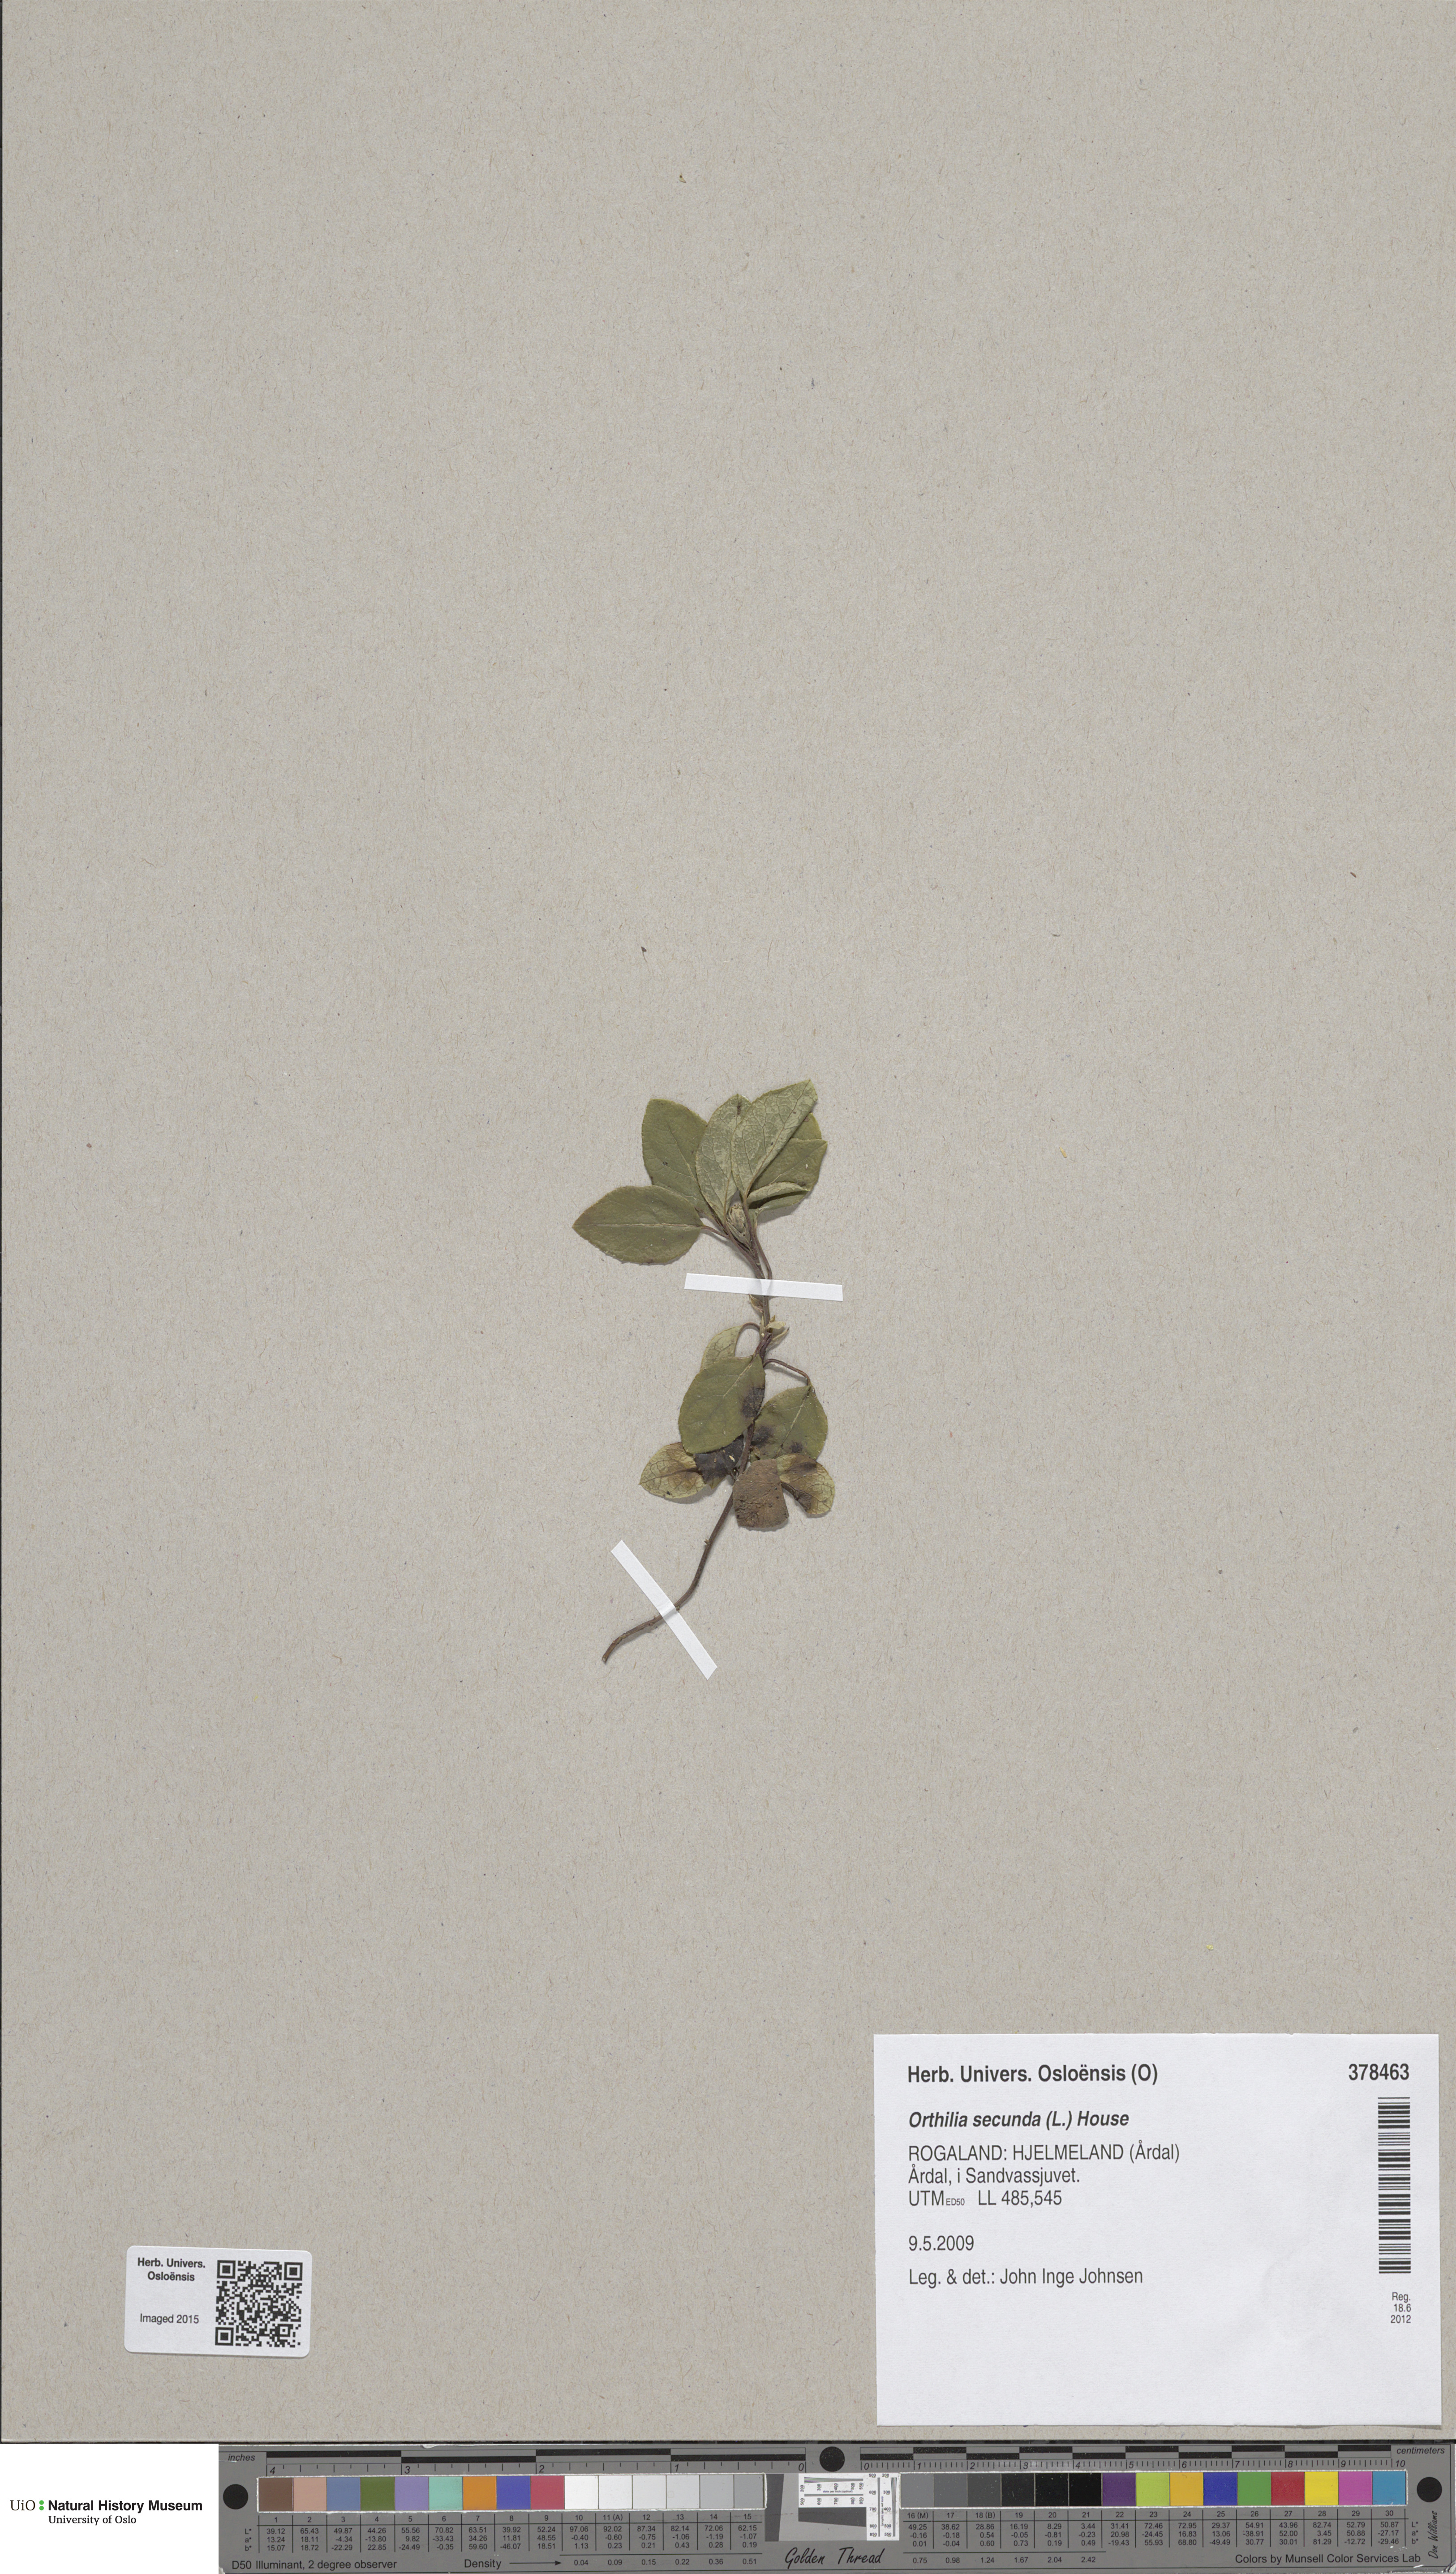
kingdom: Plantae
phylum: Tracheophyta
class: Magnoliopsida
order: Ericales
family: Ericaceae
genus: Orthilia
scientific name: Orthilia secunda
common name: One-sided orthilia
